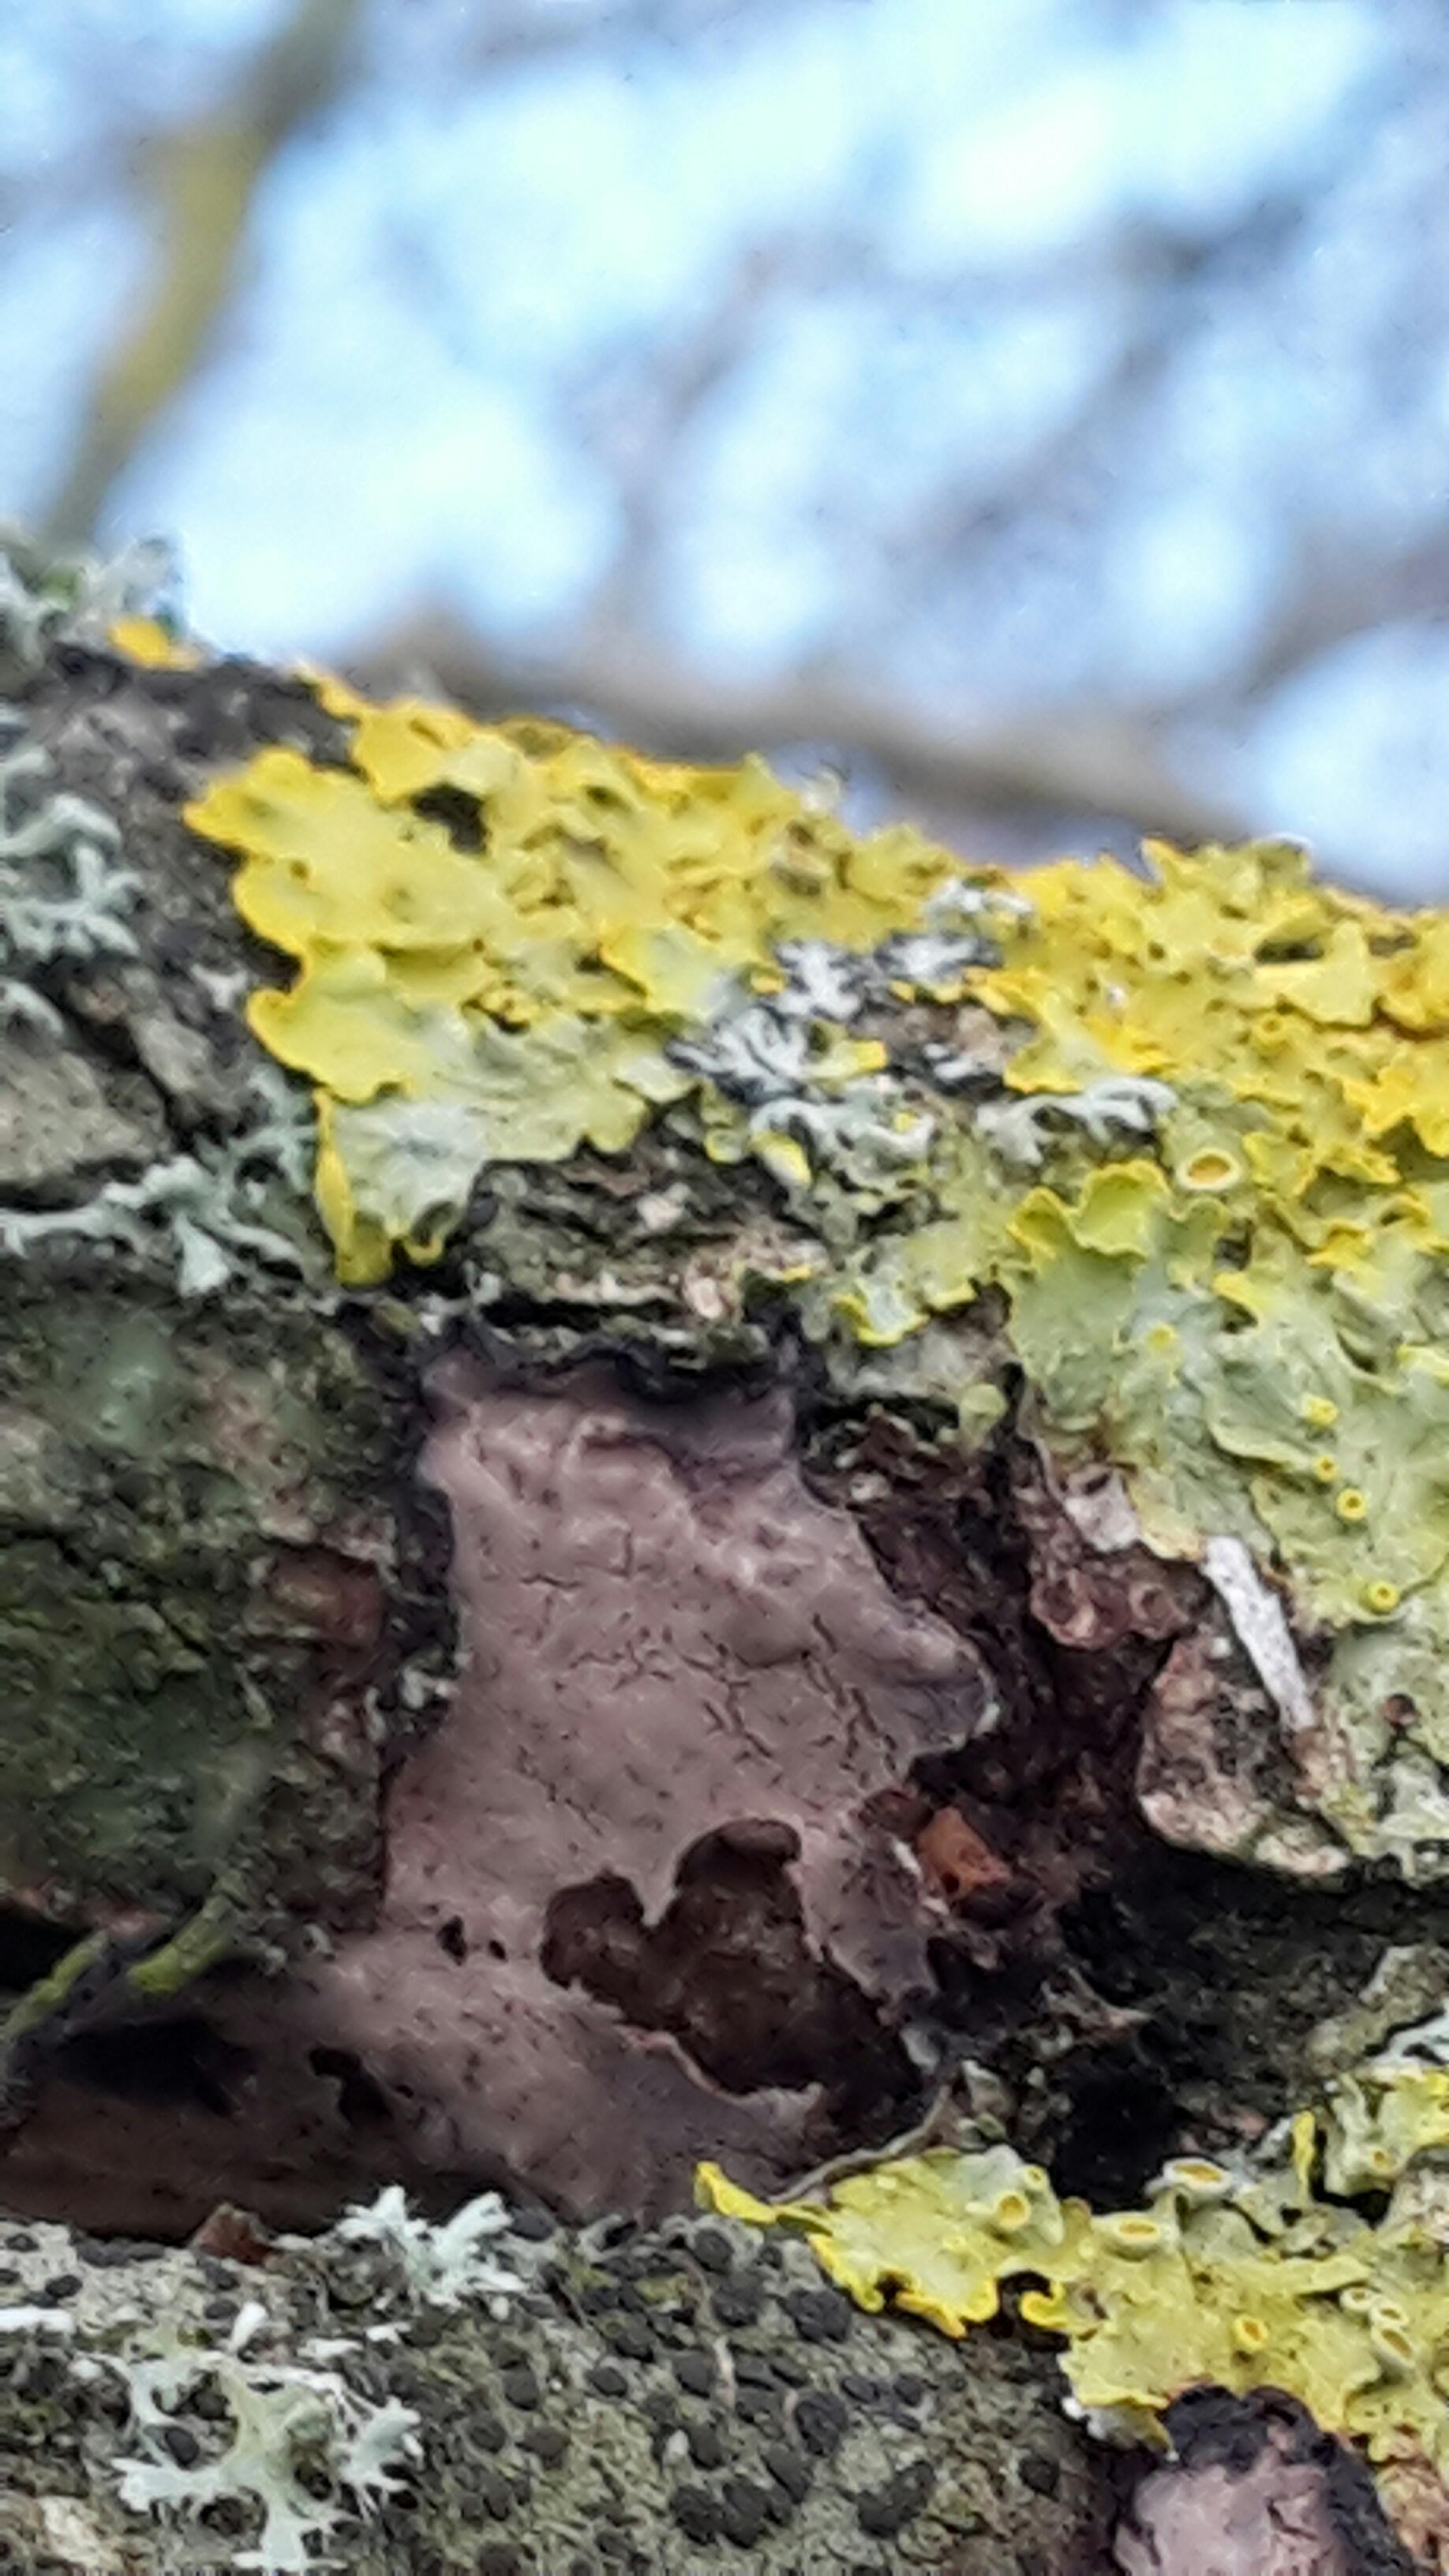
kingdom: Fungi
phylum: Basidiomycota
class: Agaricomycetes
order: Russulales
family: Peniophoraceae
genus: Peniophora
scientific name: Peniophora quercina
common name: ege-voksskind
